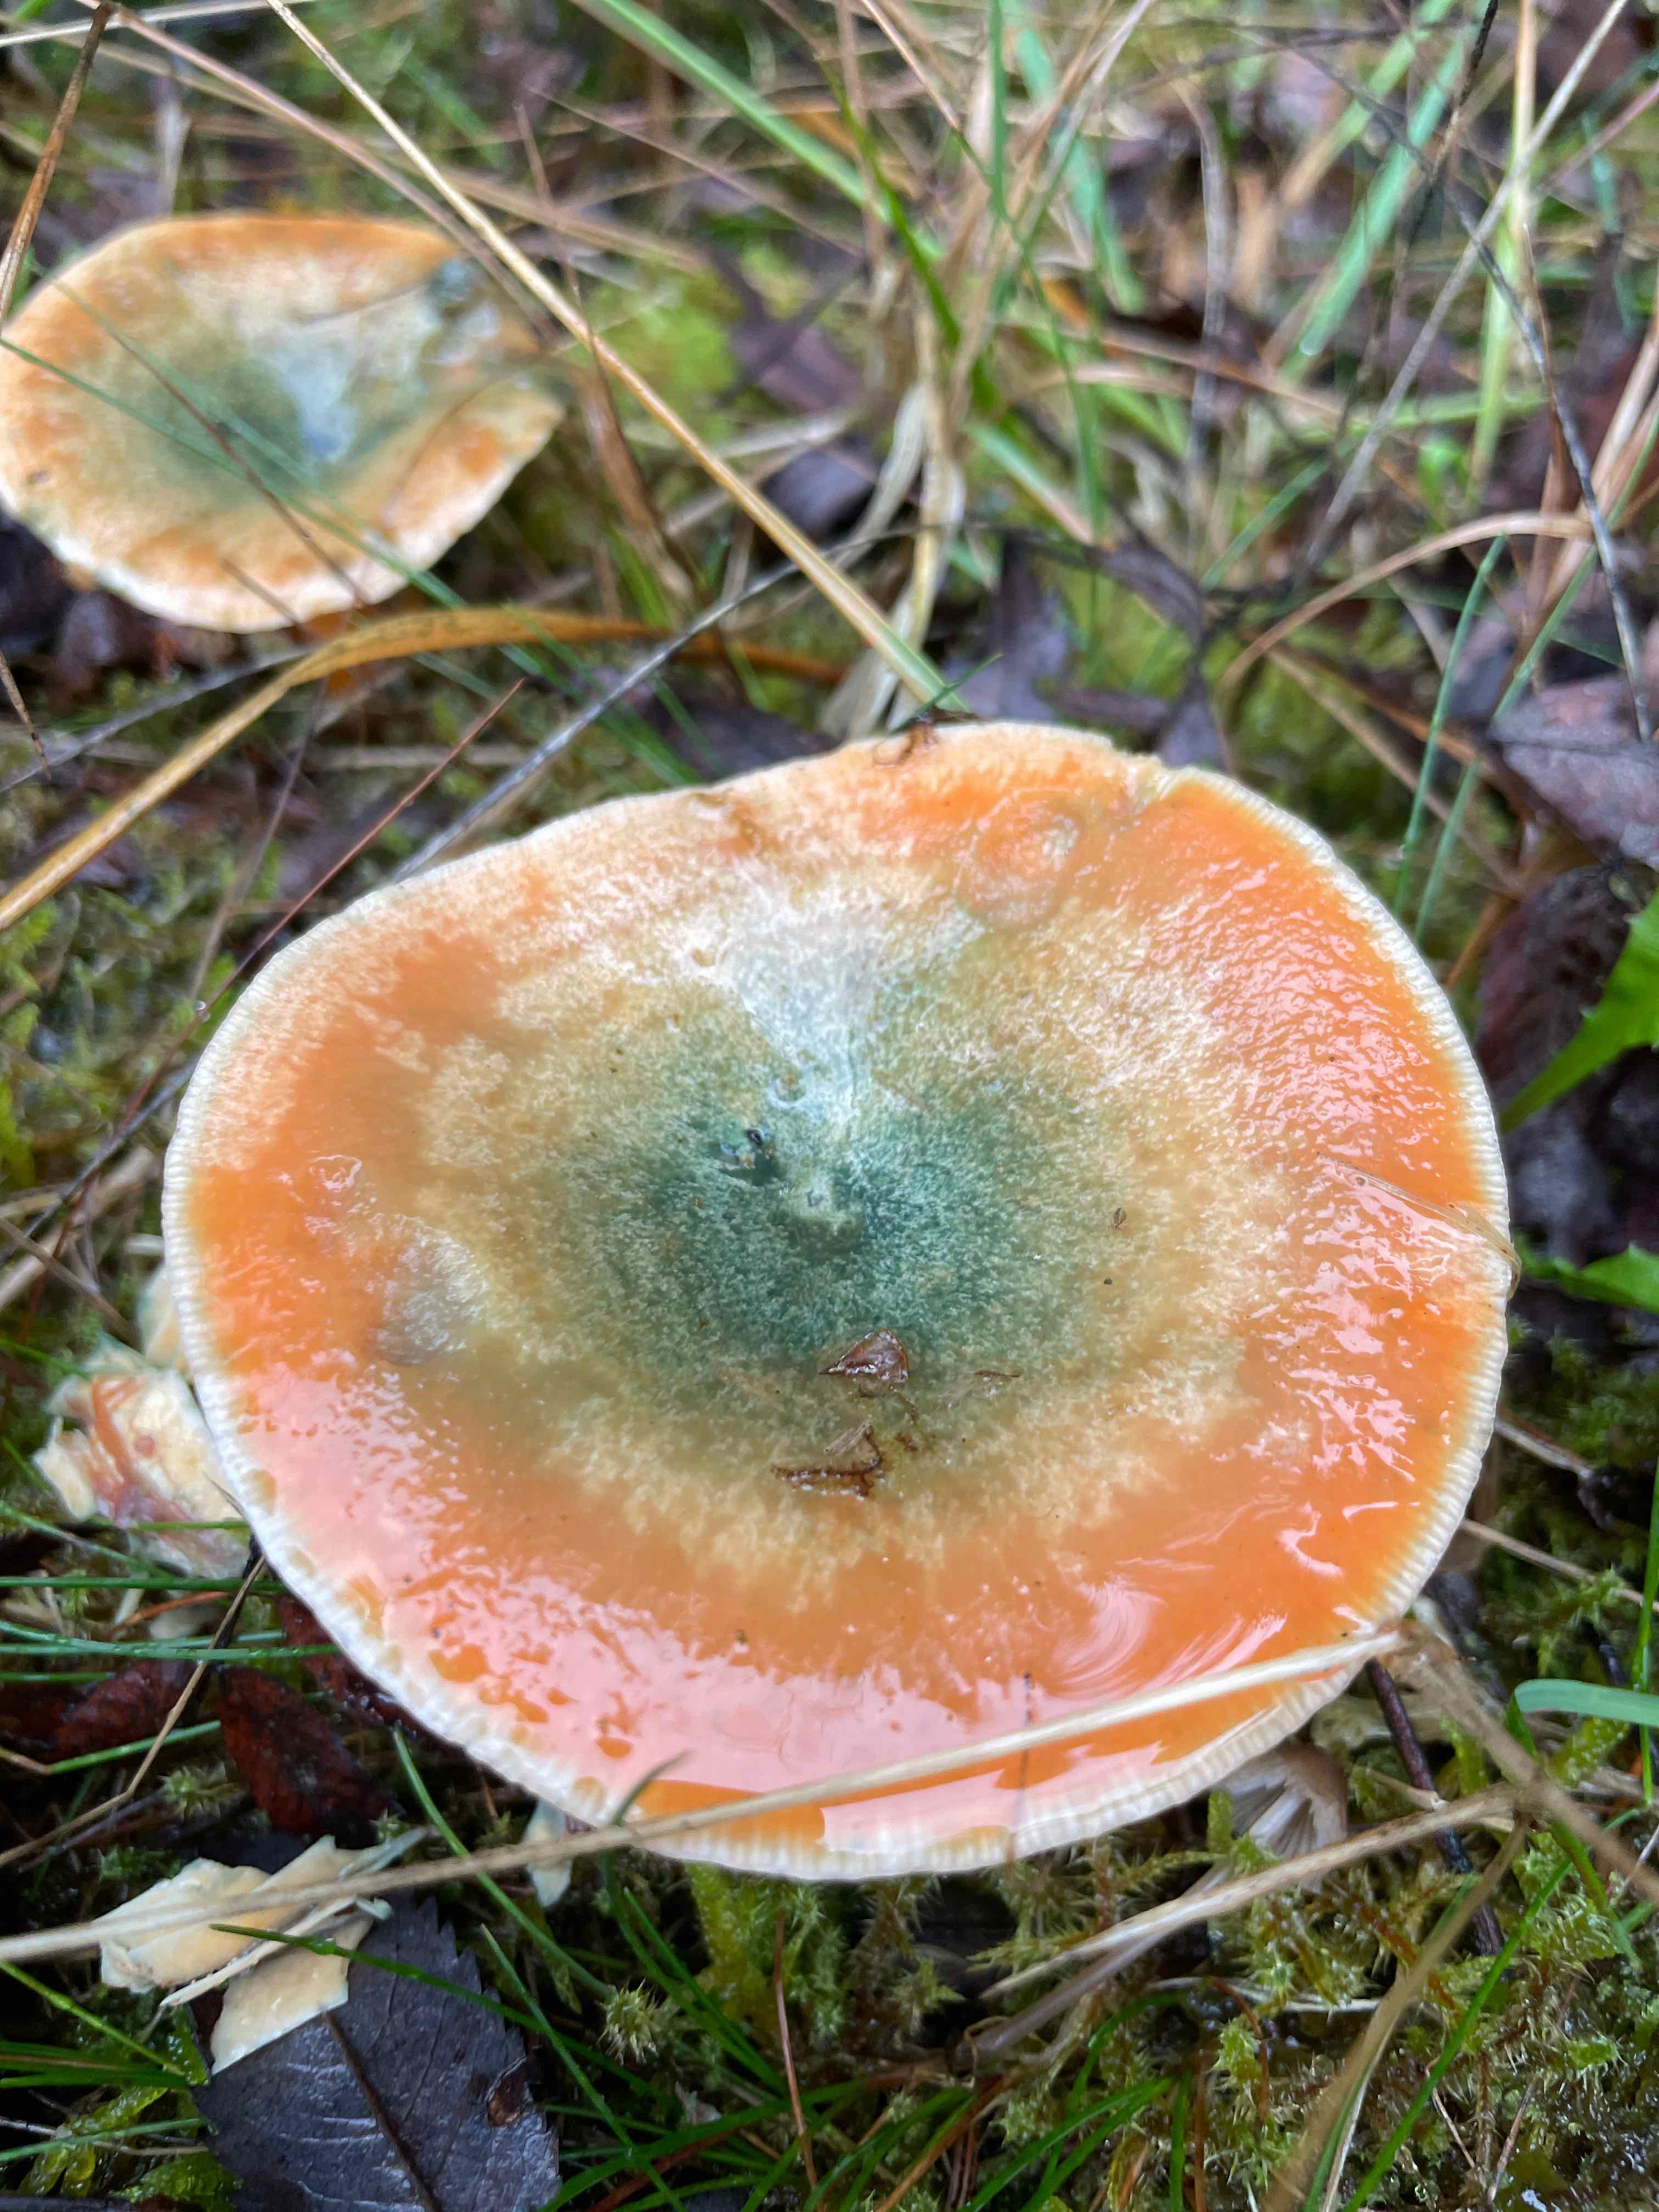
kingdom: Fungi
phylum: Basidiomycota
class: Agaricomycetes
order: Russulales
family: Russulaceae
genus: Lactarius
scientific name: Lactarius deterrimus
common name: gran-mælkehat
